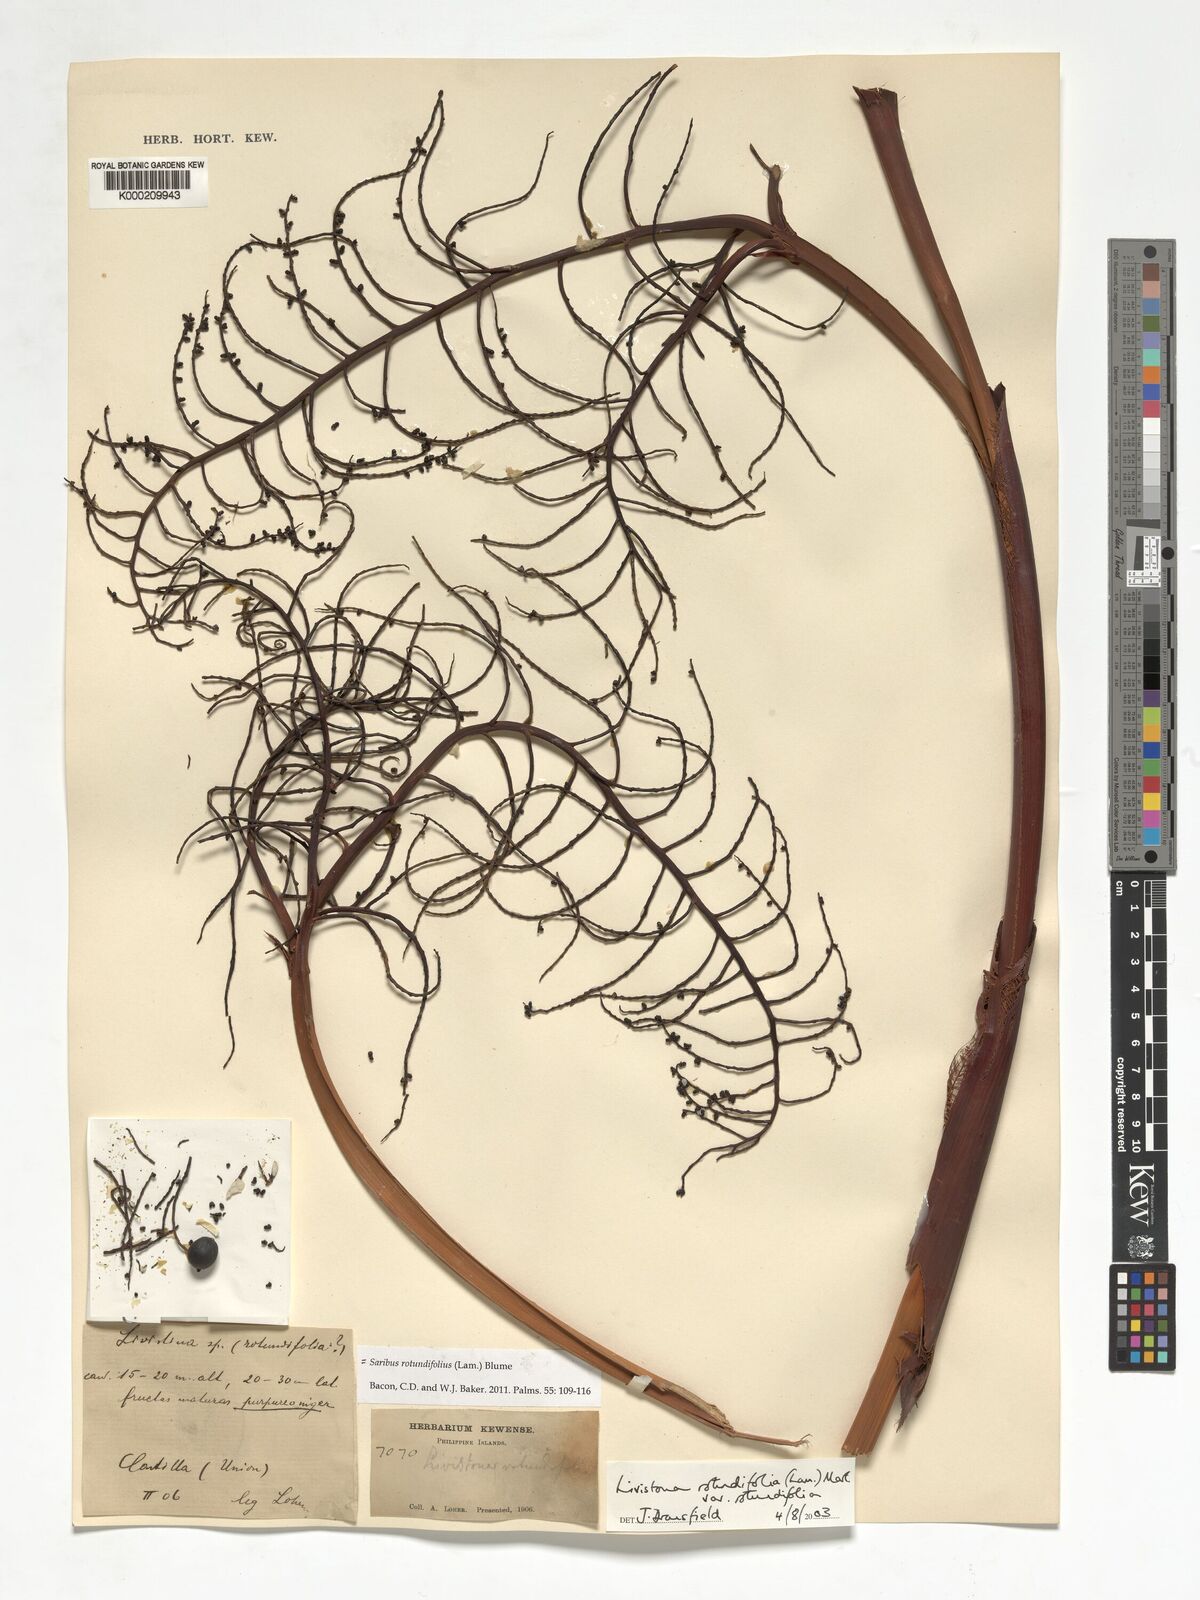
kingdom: Plantae
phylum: Tracheophyta
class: Liliopsida
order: Arecales
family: Arecaceae
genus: Saribus
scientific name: Saribus rotundifolius
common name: Palm
